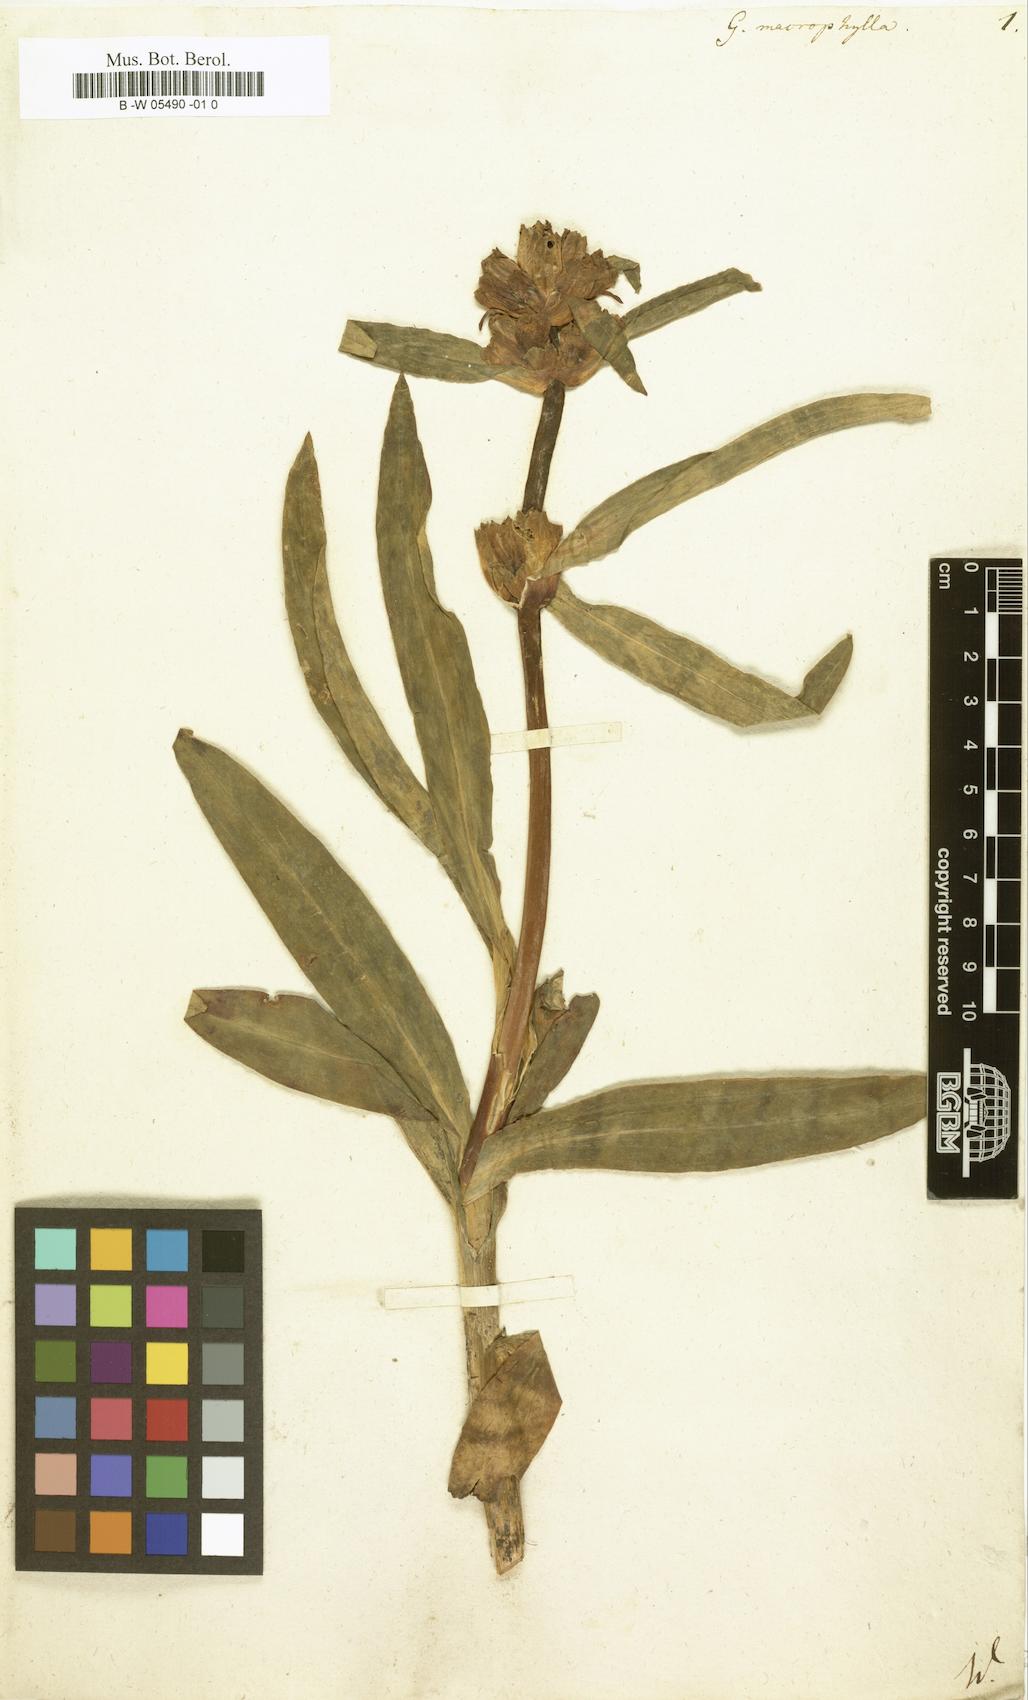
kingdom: Plantae
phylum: Tracheophyta
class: Magnoliopsida
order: Gentianales
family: Gentianaceae
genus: Gentiana
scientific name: Gentiana macrophylla
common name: Large-leaf gentian
